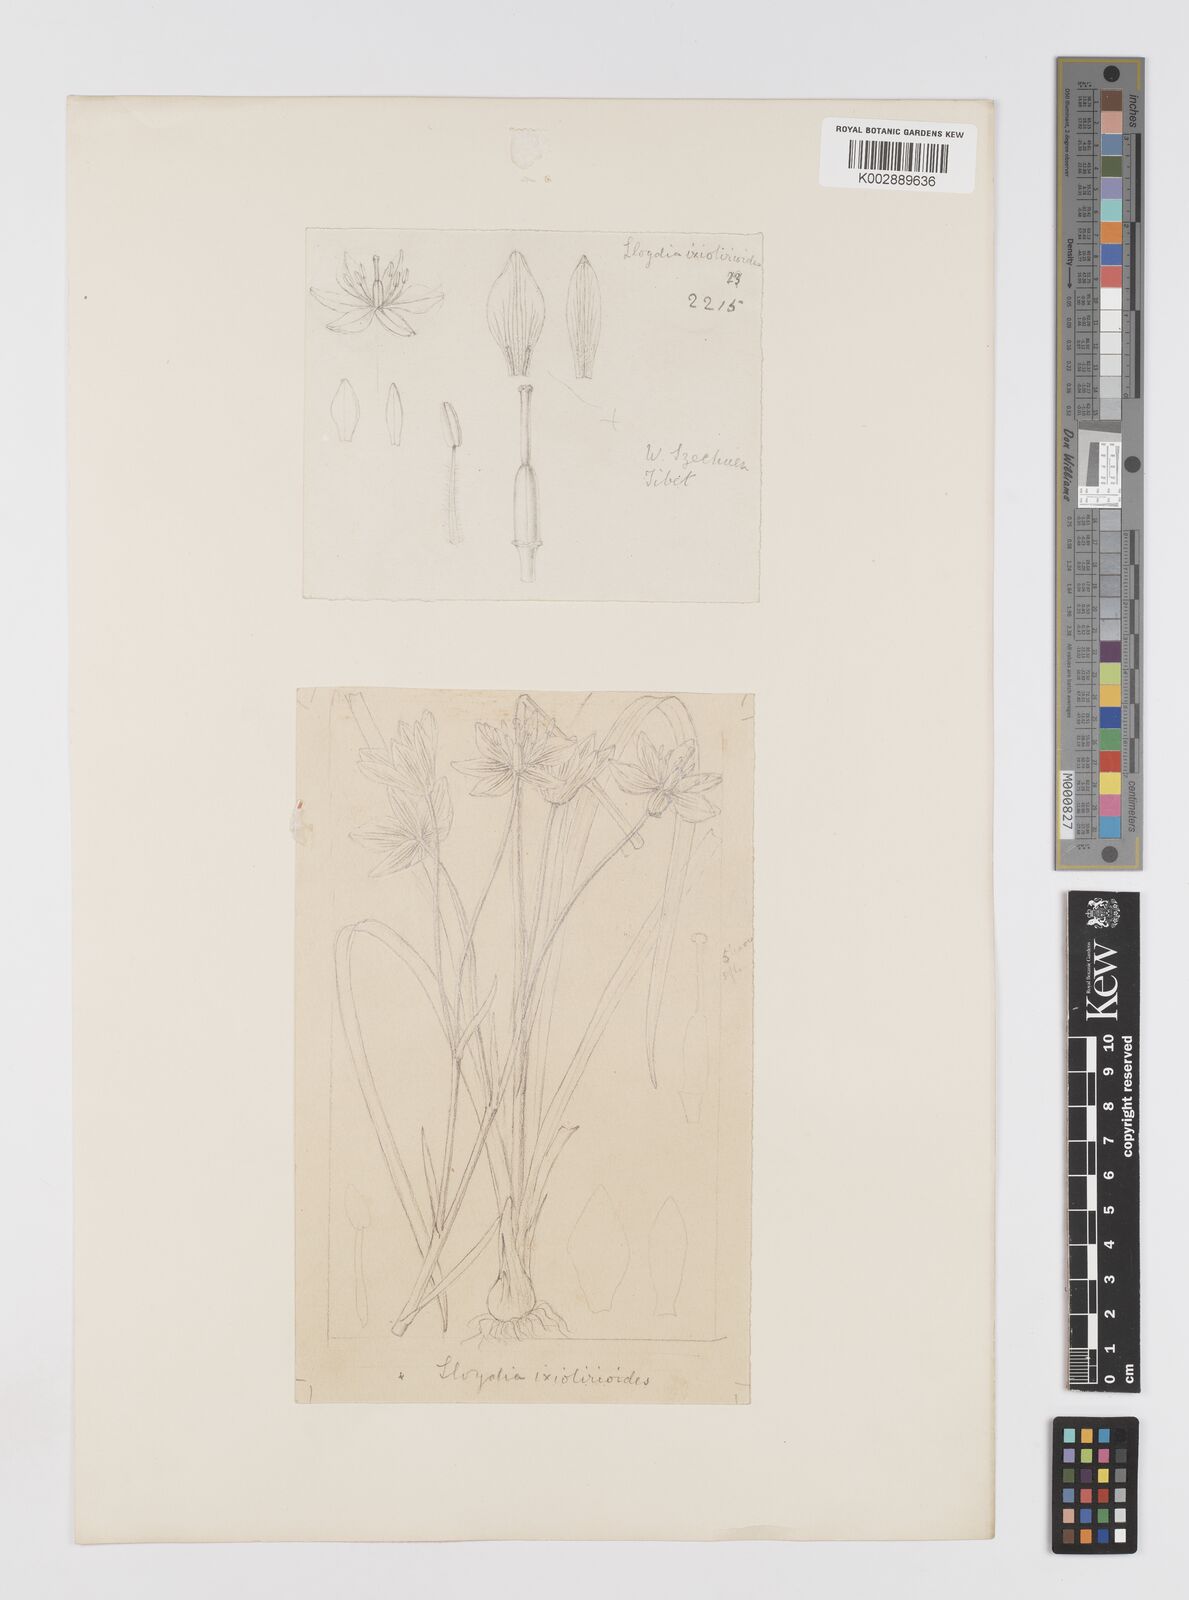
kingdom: Plantae
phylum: Tracheophyta
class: Liliopsida
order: Liliales
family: Liliaceae
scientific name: Liliaceae
